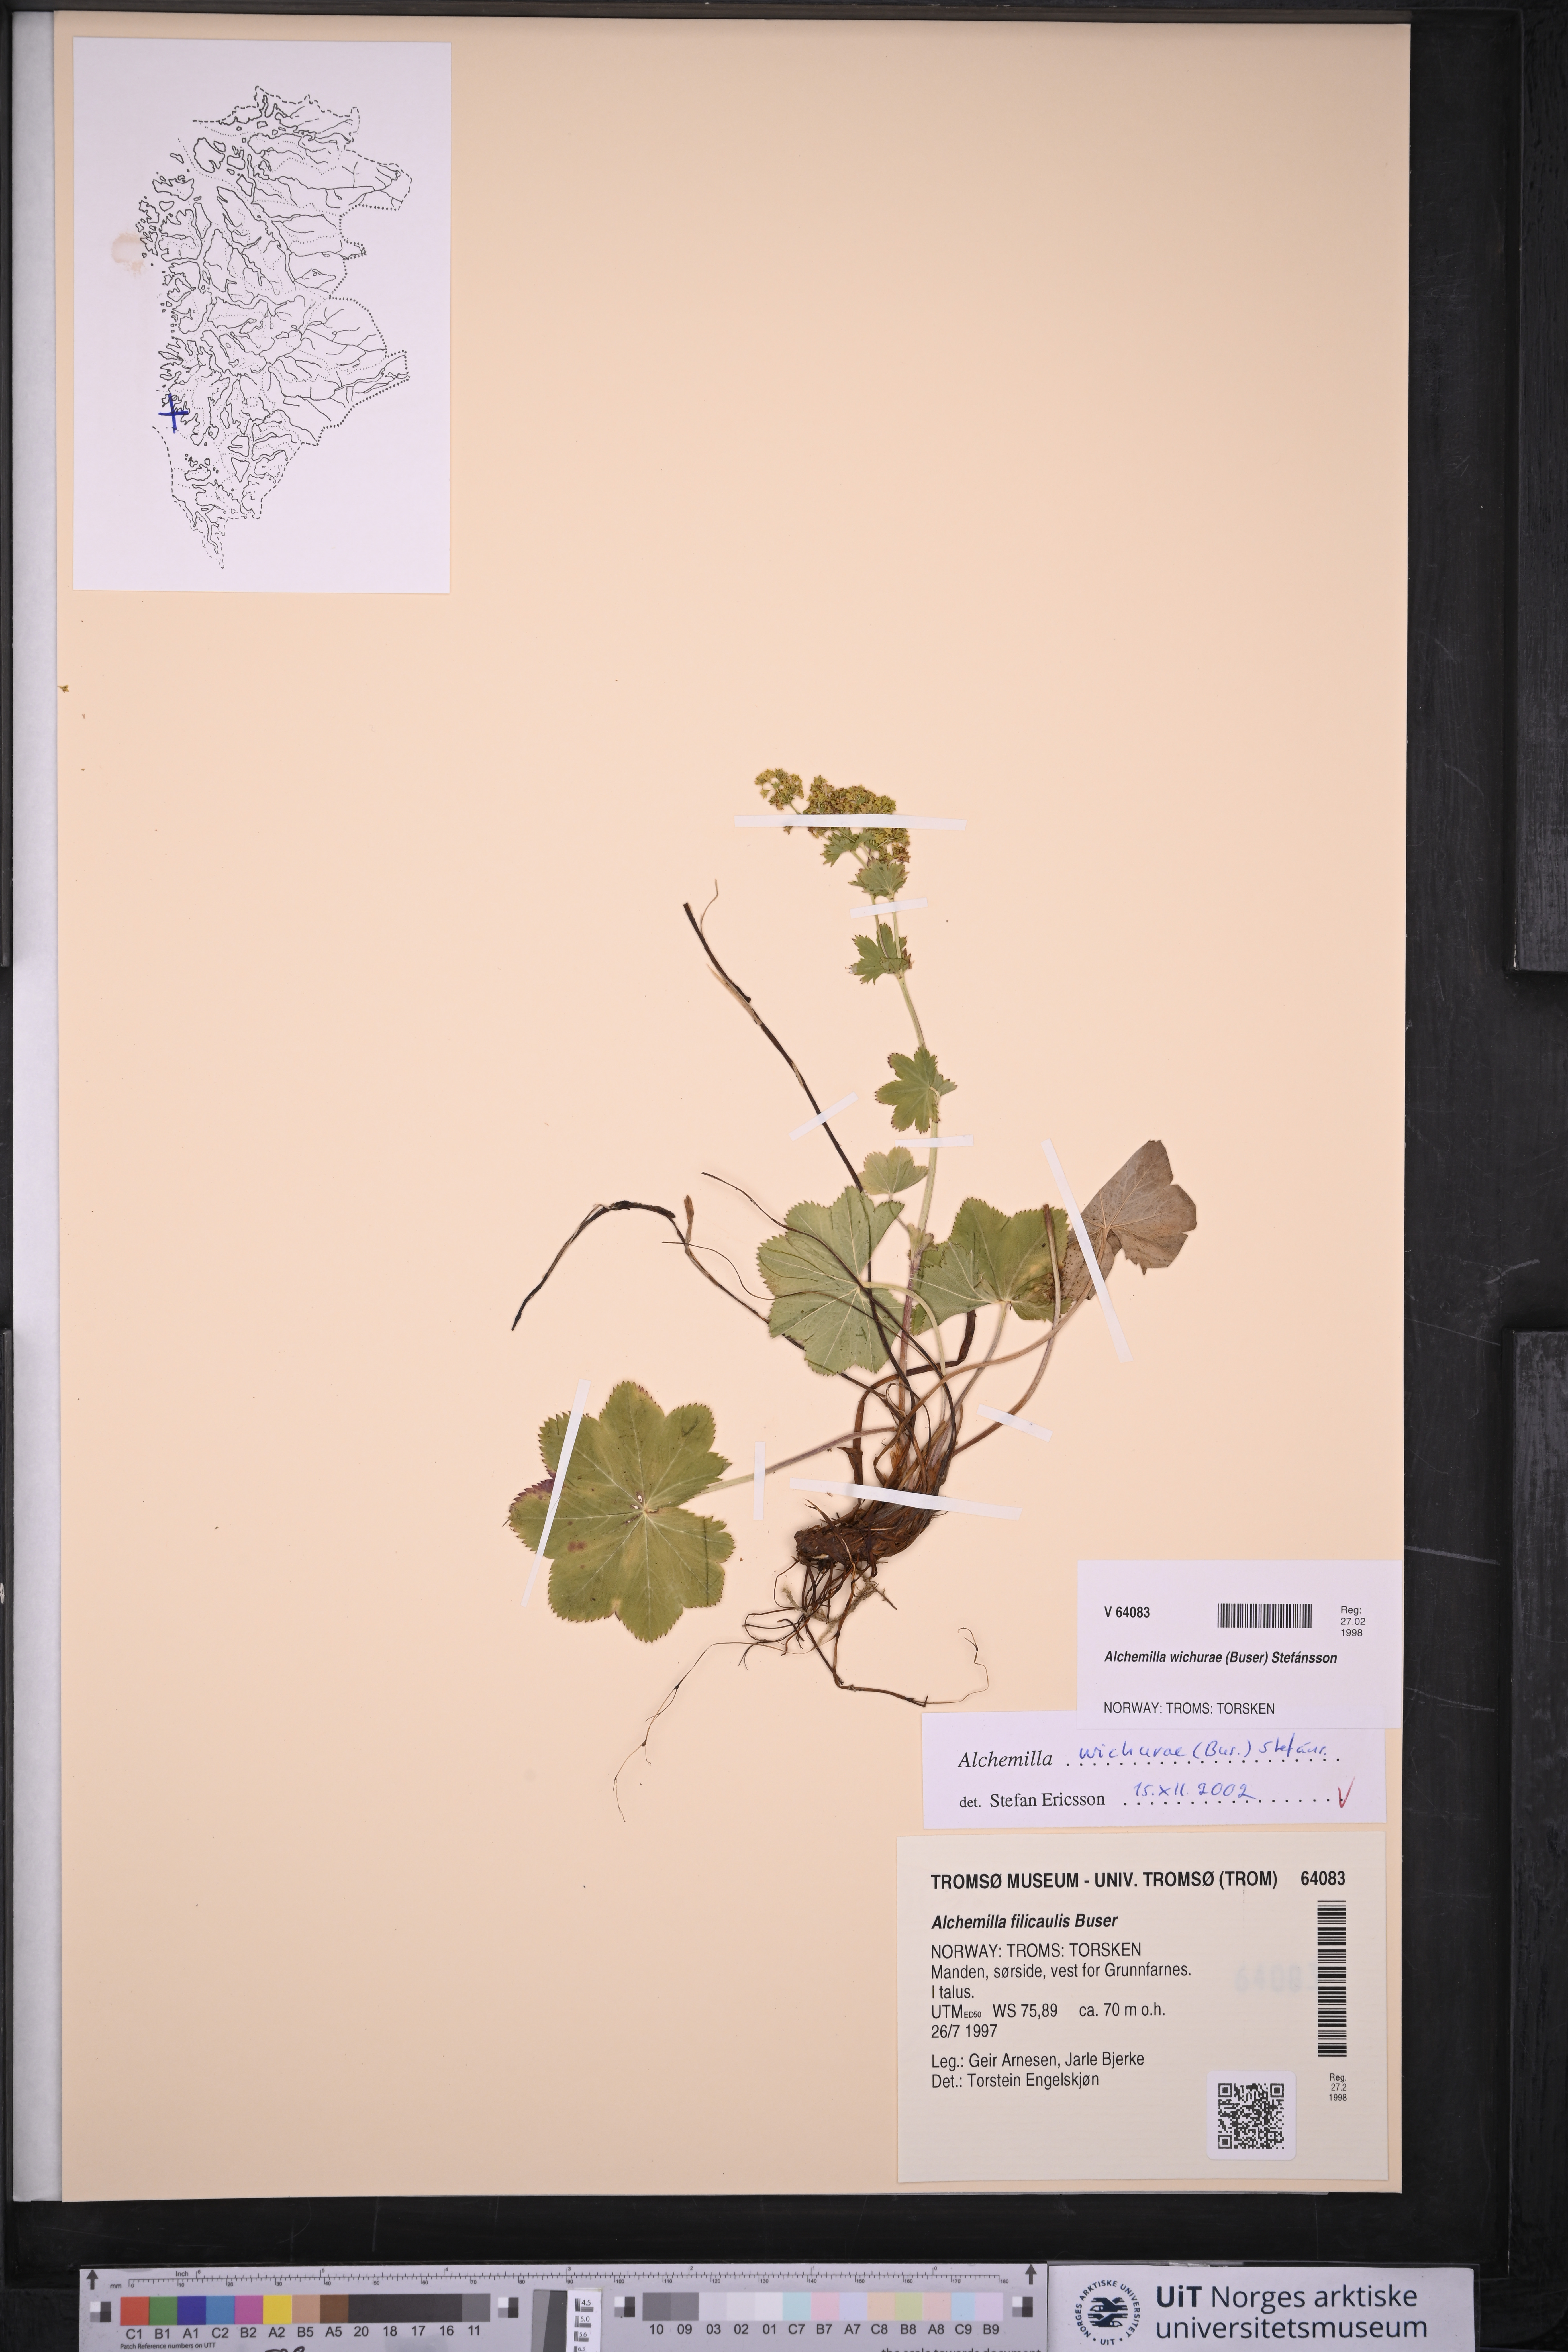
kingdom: Plantae
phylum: Tracheophyta
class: Magnoliopsida
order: Rosales
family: Rosaceae
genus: Alchemilla
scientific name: Alchemilla wichurae
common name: Rock lady's mantle
